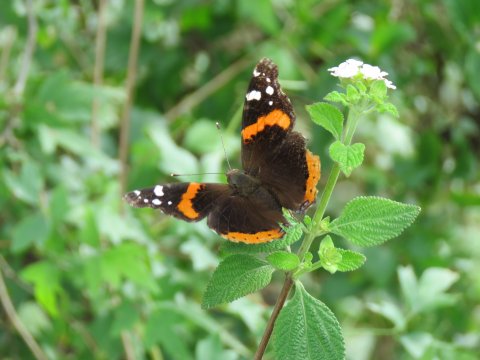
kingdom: Animalia
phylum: Arthropoda
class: Insecta
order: Lepidoptera
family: Nymphalidae
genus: Vanessa
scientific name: Vanessa atalanta
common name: Red Admiral
